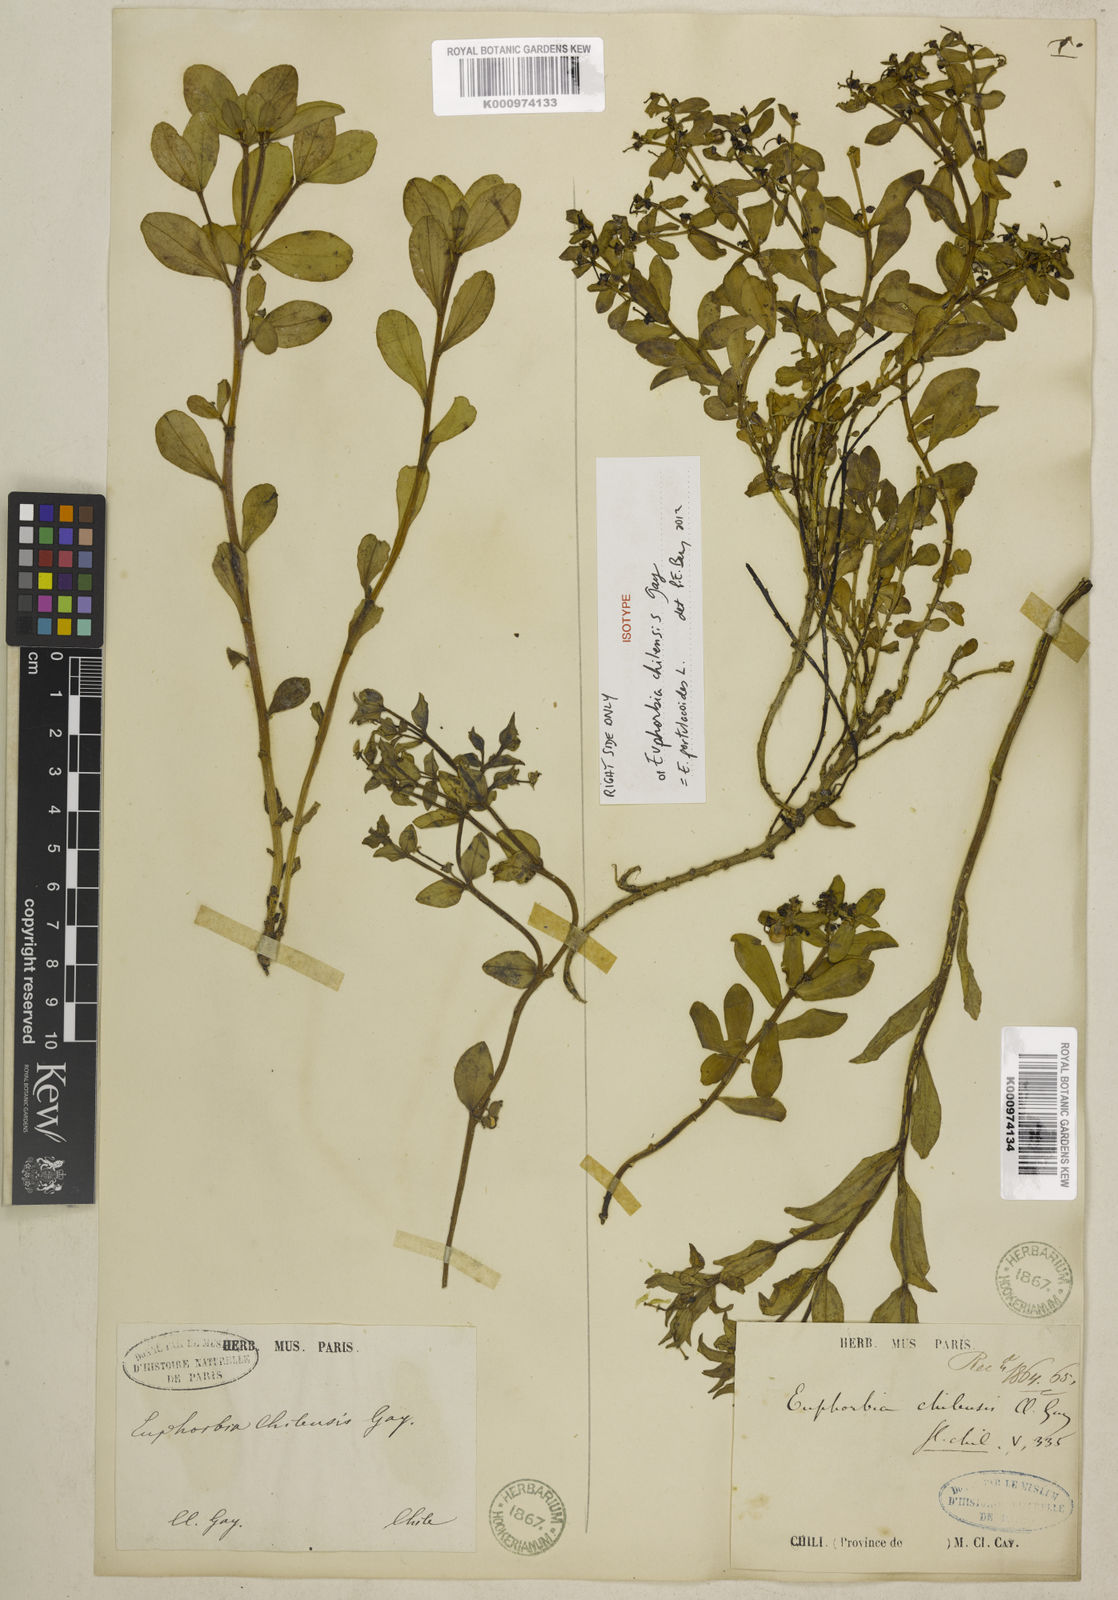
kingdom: Plantae
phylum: Tracheophyta
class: Liliopsida
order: Poales
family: Poaceae
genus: Agrostis
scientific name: Agrostis gigantea
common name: Black bent
